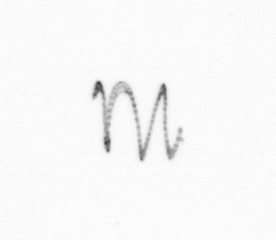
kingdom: Chromista
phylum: Ochrophyta
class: Bacillariophyceae
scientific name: Bacillariophyceae
